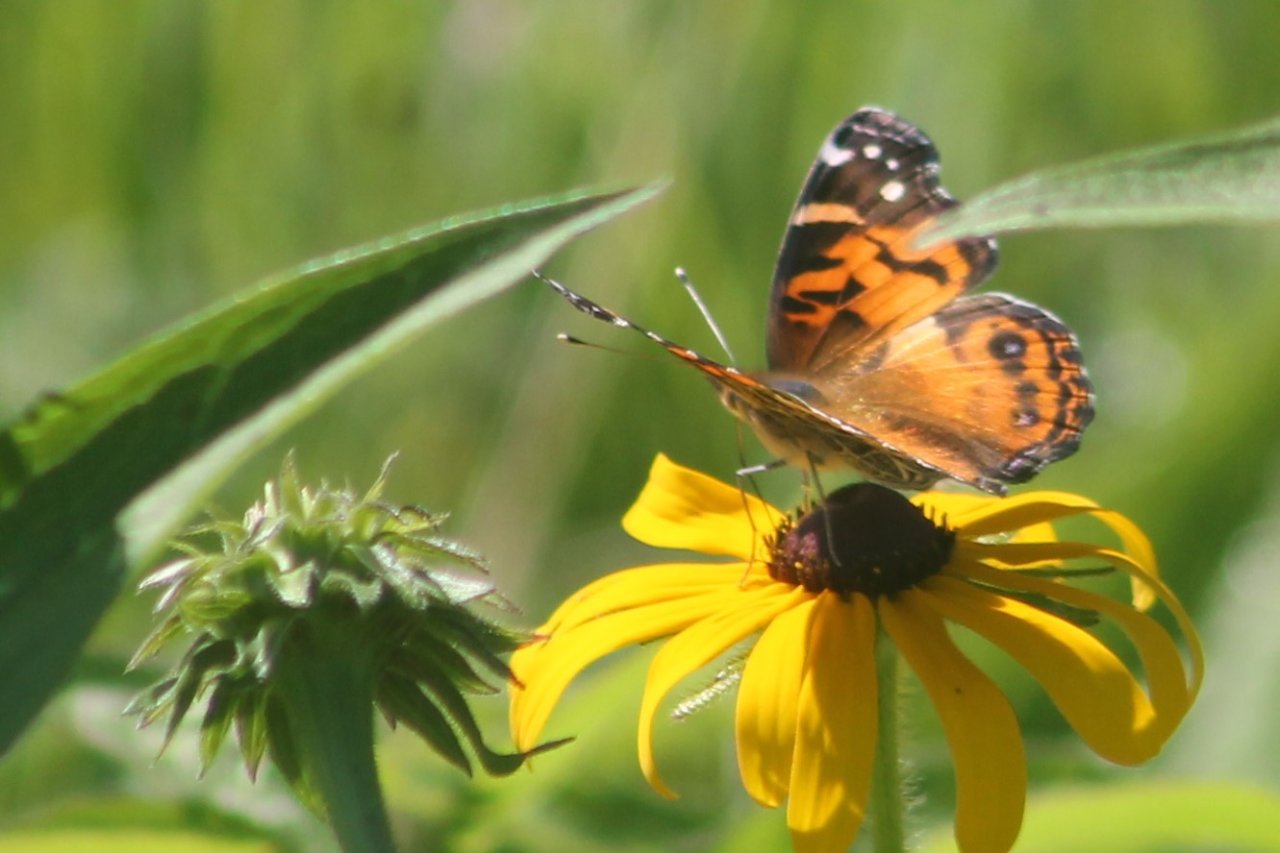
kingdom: Animalia
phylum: Arthropoda
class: Insecta
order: Lepidoptera
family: Nymphalidae
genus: Vanessa
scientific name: Vanessa virginiensis
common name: American Lady
